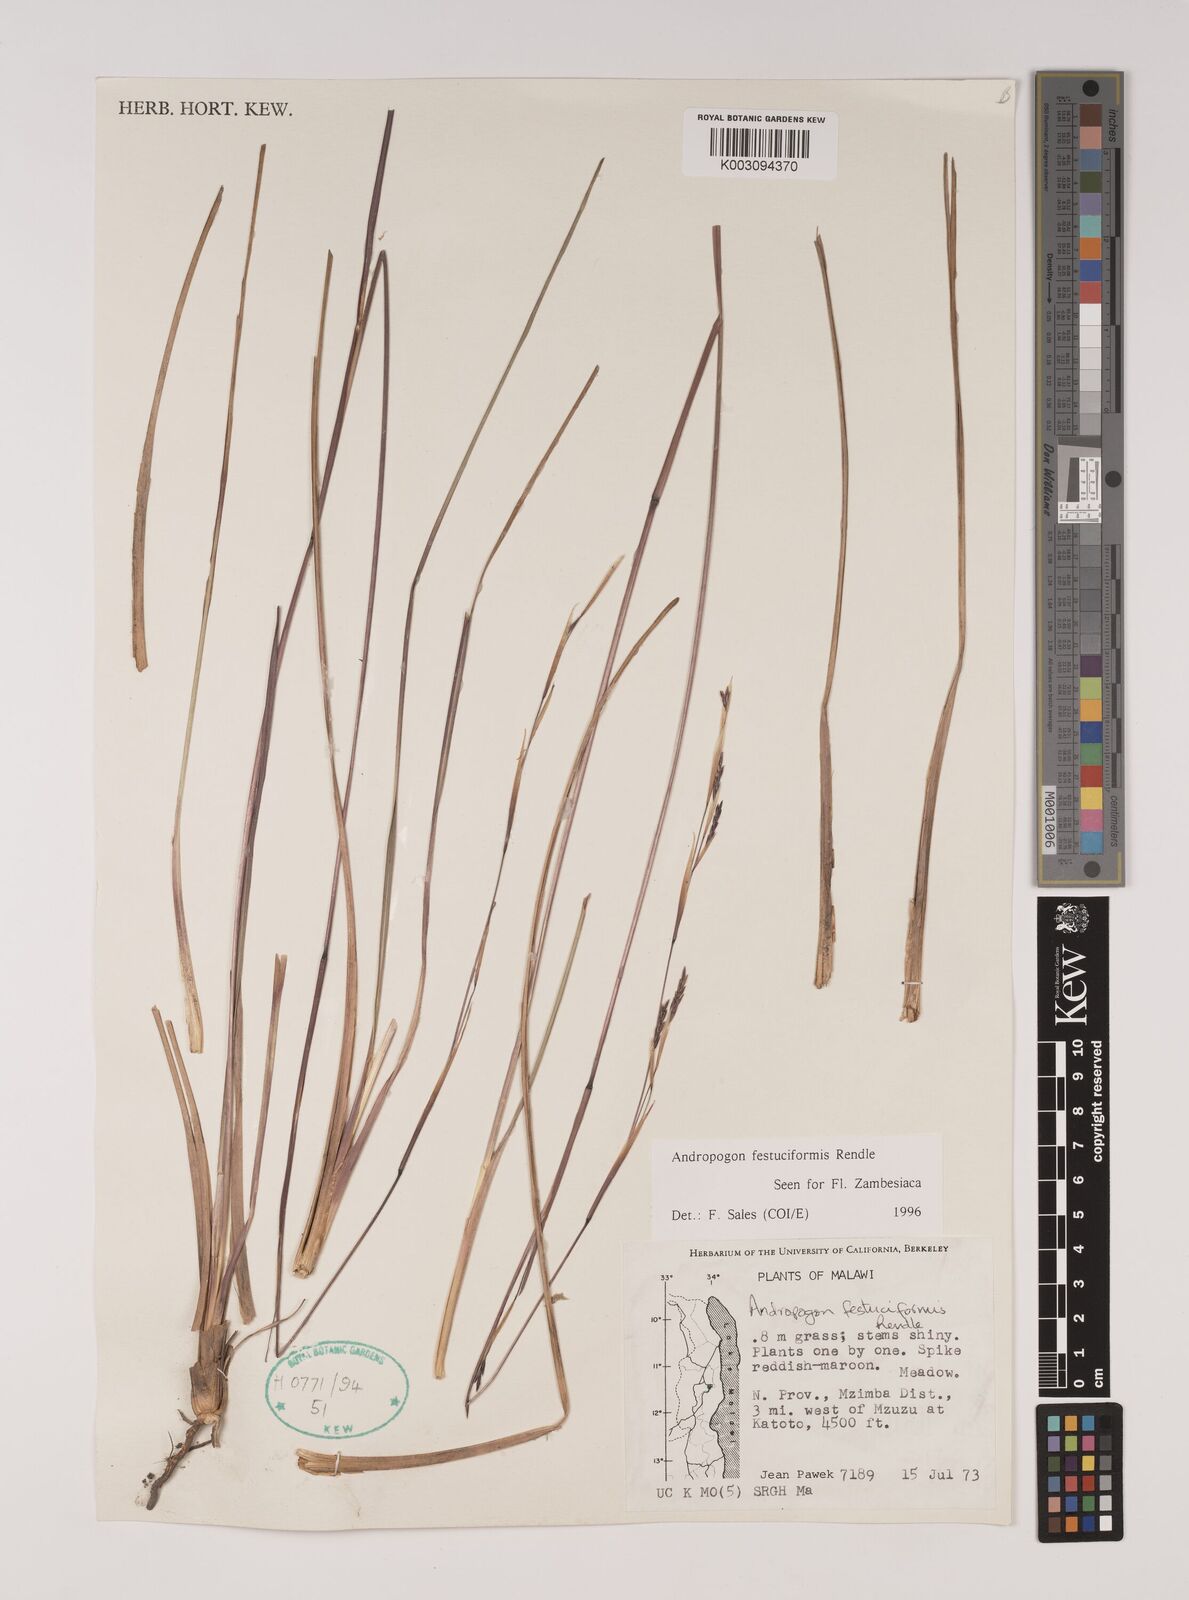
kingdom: Plantae
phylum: Tracheophyta
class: Liliopsida
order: Poales
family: Poaceae
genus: Andropogon
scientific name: Andropogon festuciformis
